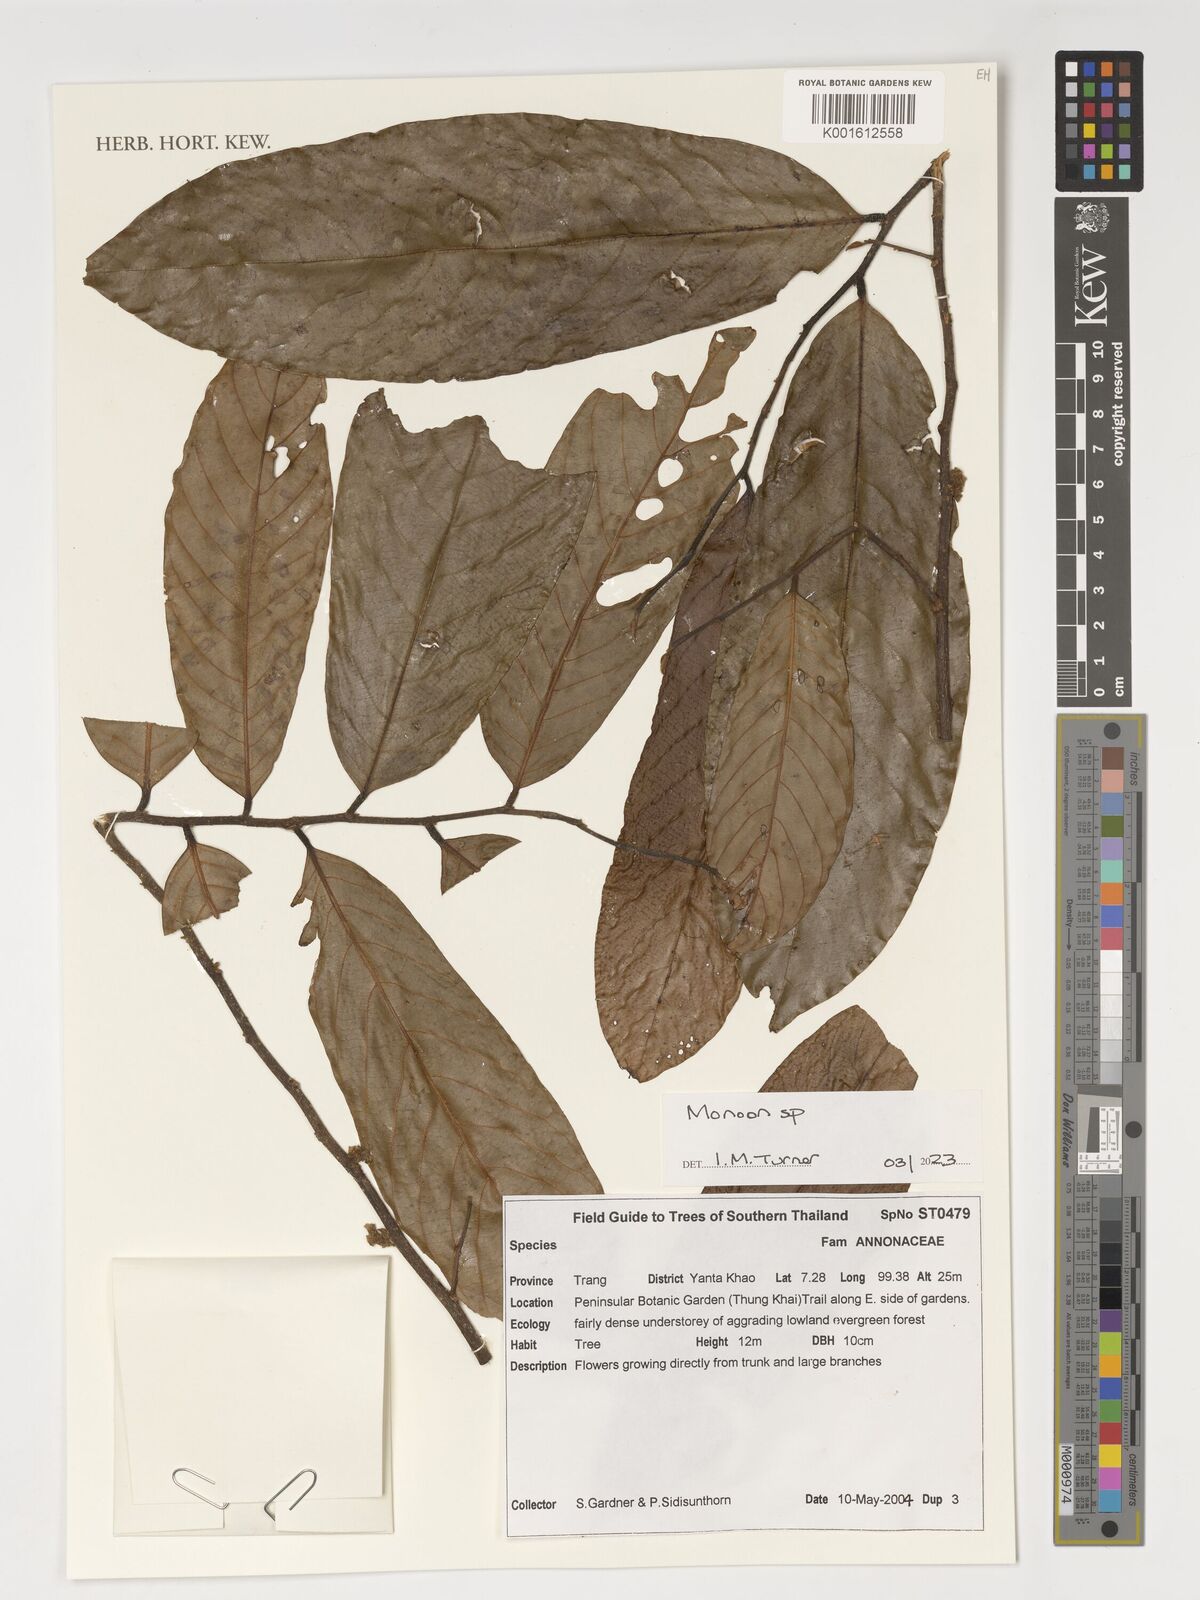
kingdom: Plantae
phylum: Tracheophyta
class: Magnoliopsida
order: Magnoliales
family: Annonaceae
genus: Monoon
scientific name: Monoon
